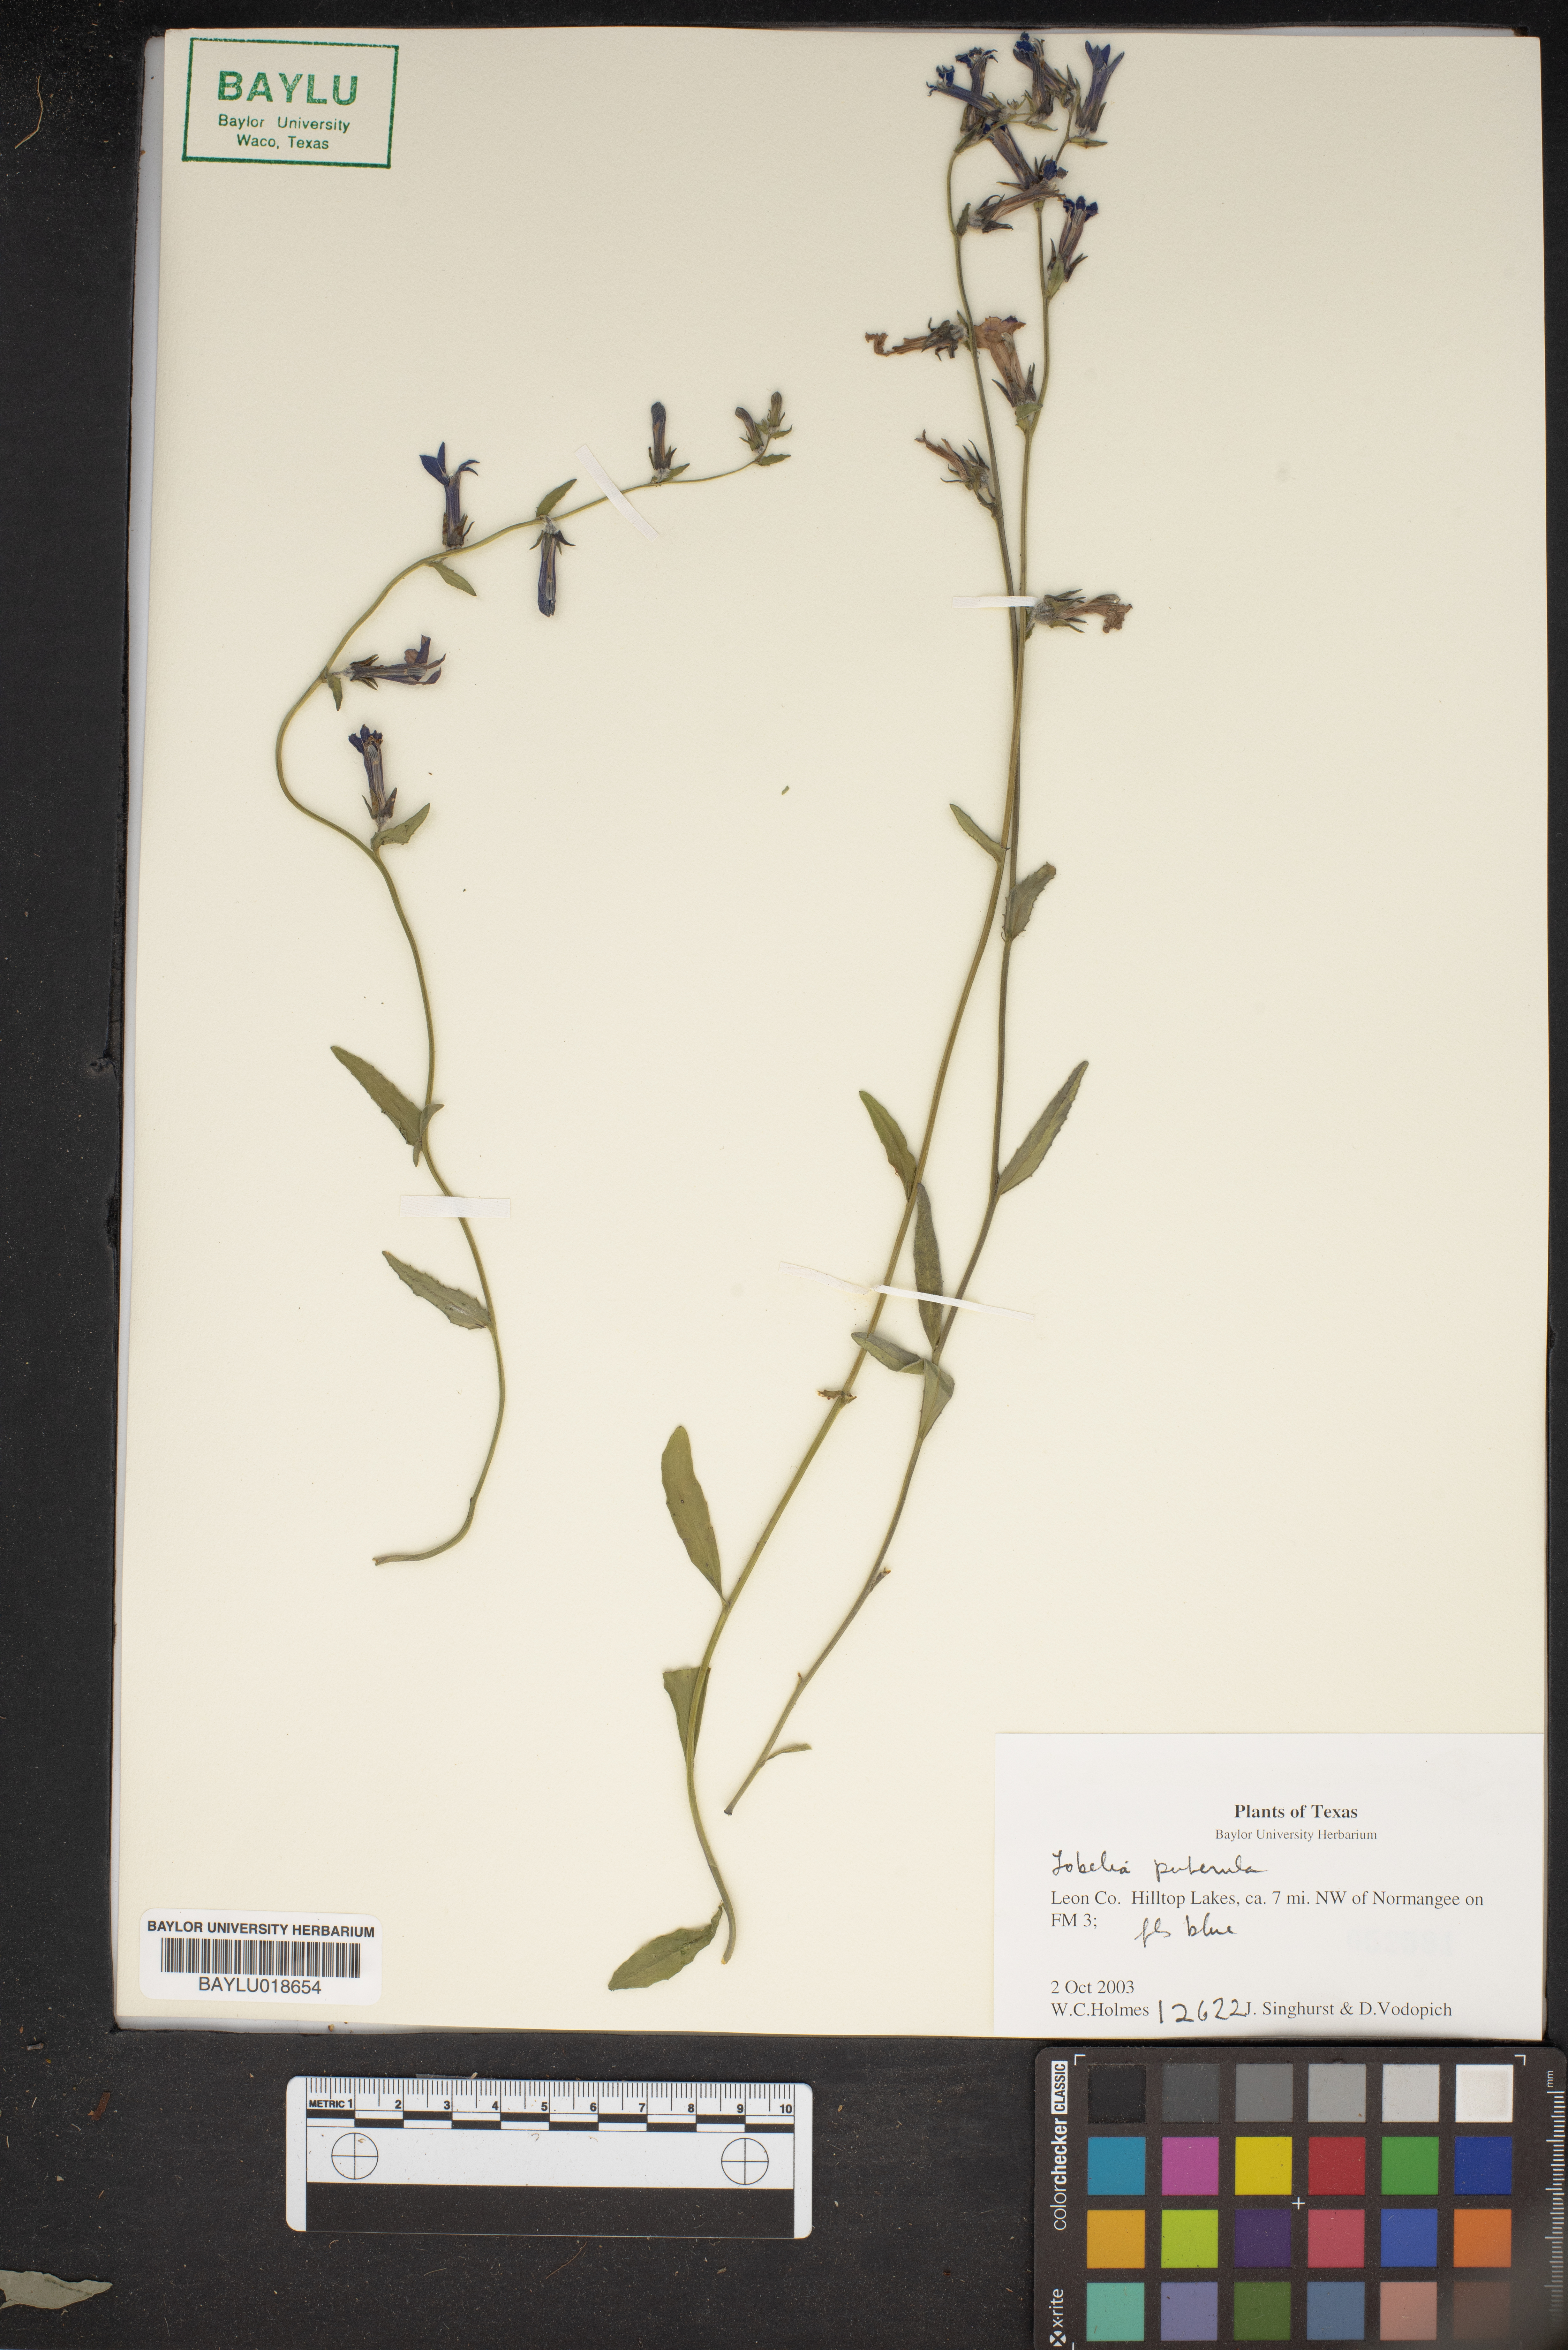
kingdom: Plantae
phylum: Tracheophyta
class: Magnoliopsida
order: Asterales
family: Campanulaceae
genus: Lobelia
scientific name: Lobelia puberula
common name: Purple dewdrop
